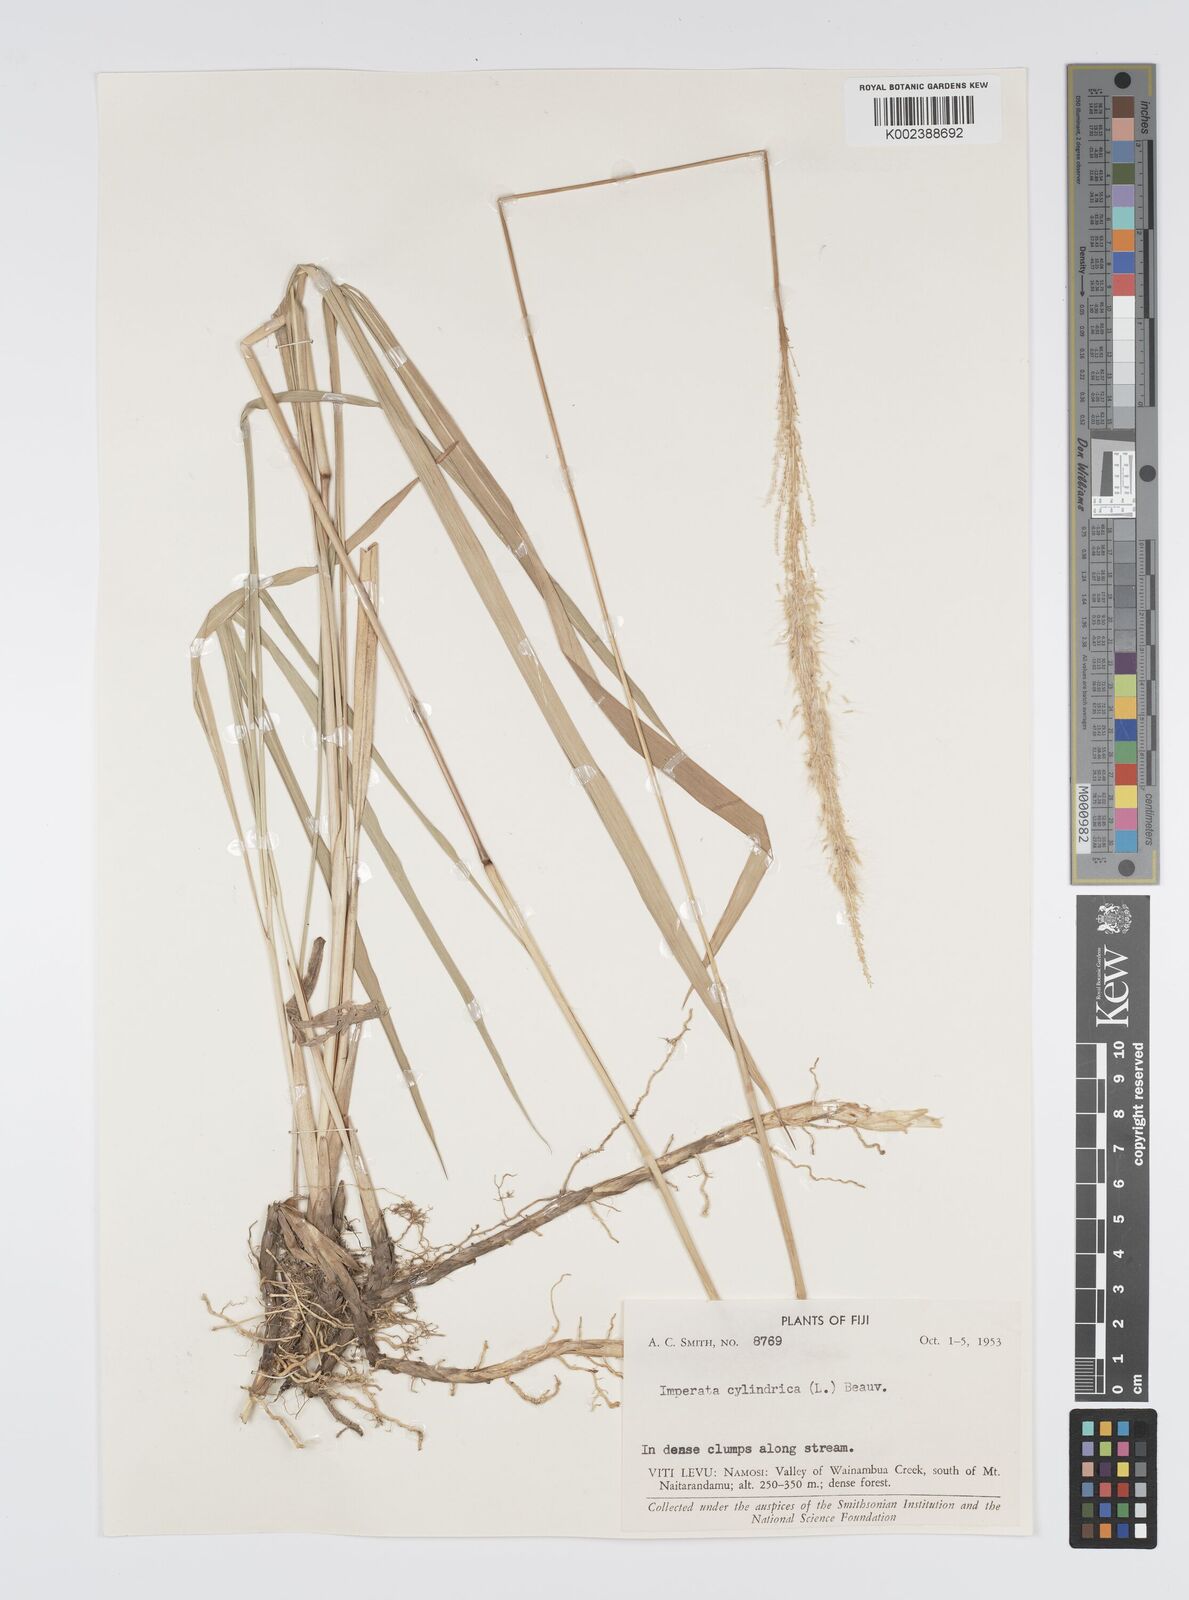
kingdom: Plantae
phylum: Tracheophyta
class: Liliopsida
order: Poales
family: Poaceae
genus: Imperata
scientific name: Imperata cylindrica
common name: Cogongrass
